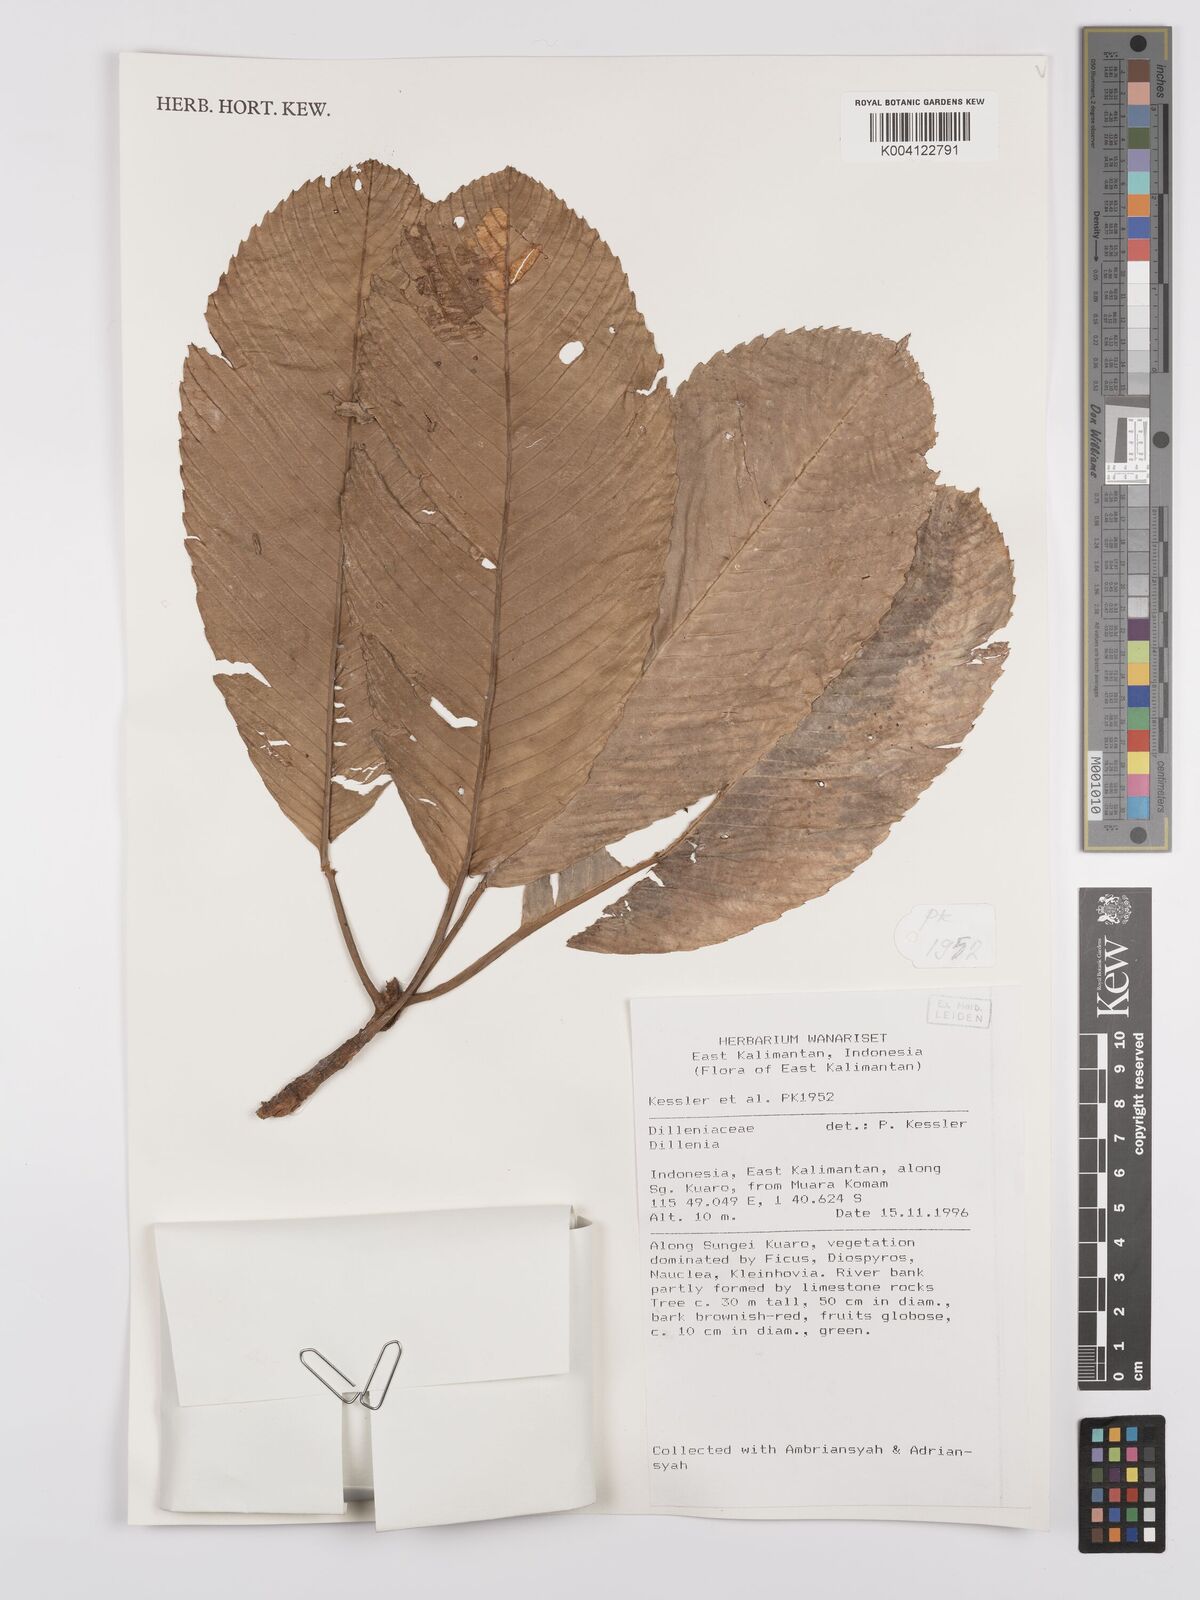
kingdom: Plantae
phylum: Tracheophyta
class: Magnoliopsida
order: Dilleniales
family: Dilleniaceae
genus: Dillenia
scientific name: Dillenia
